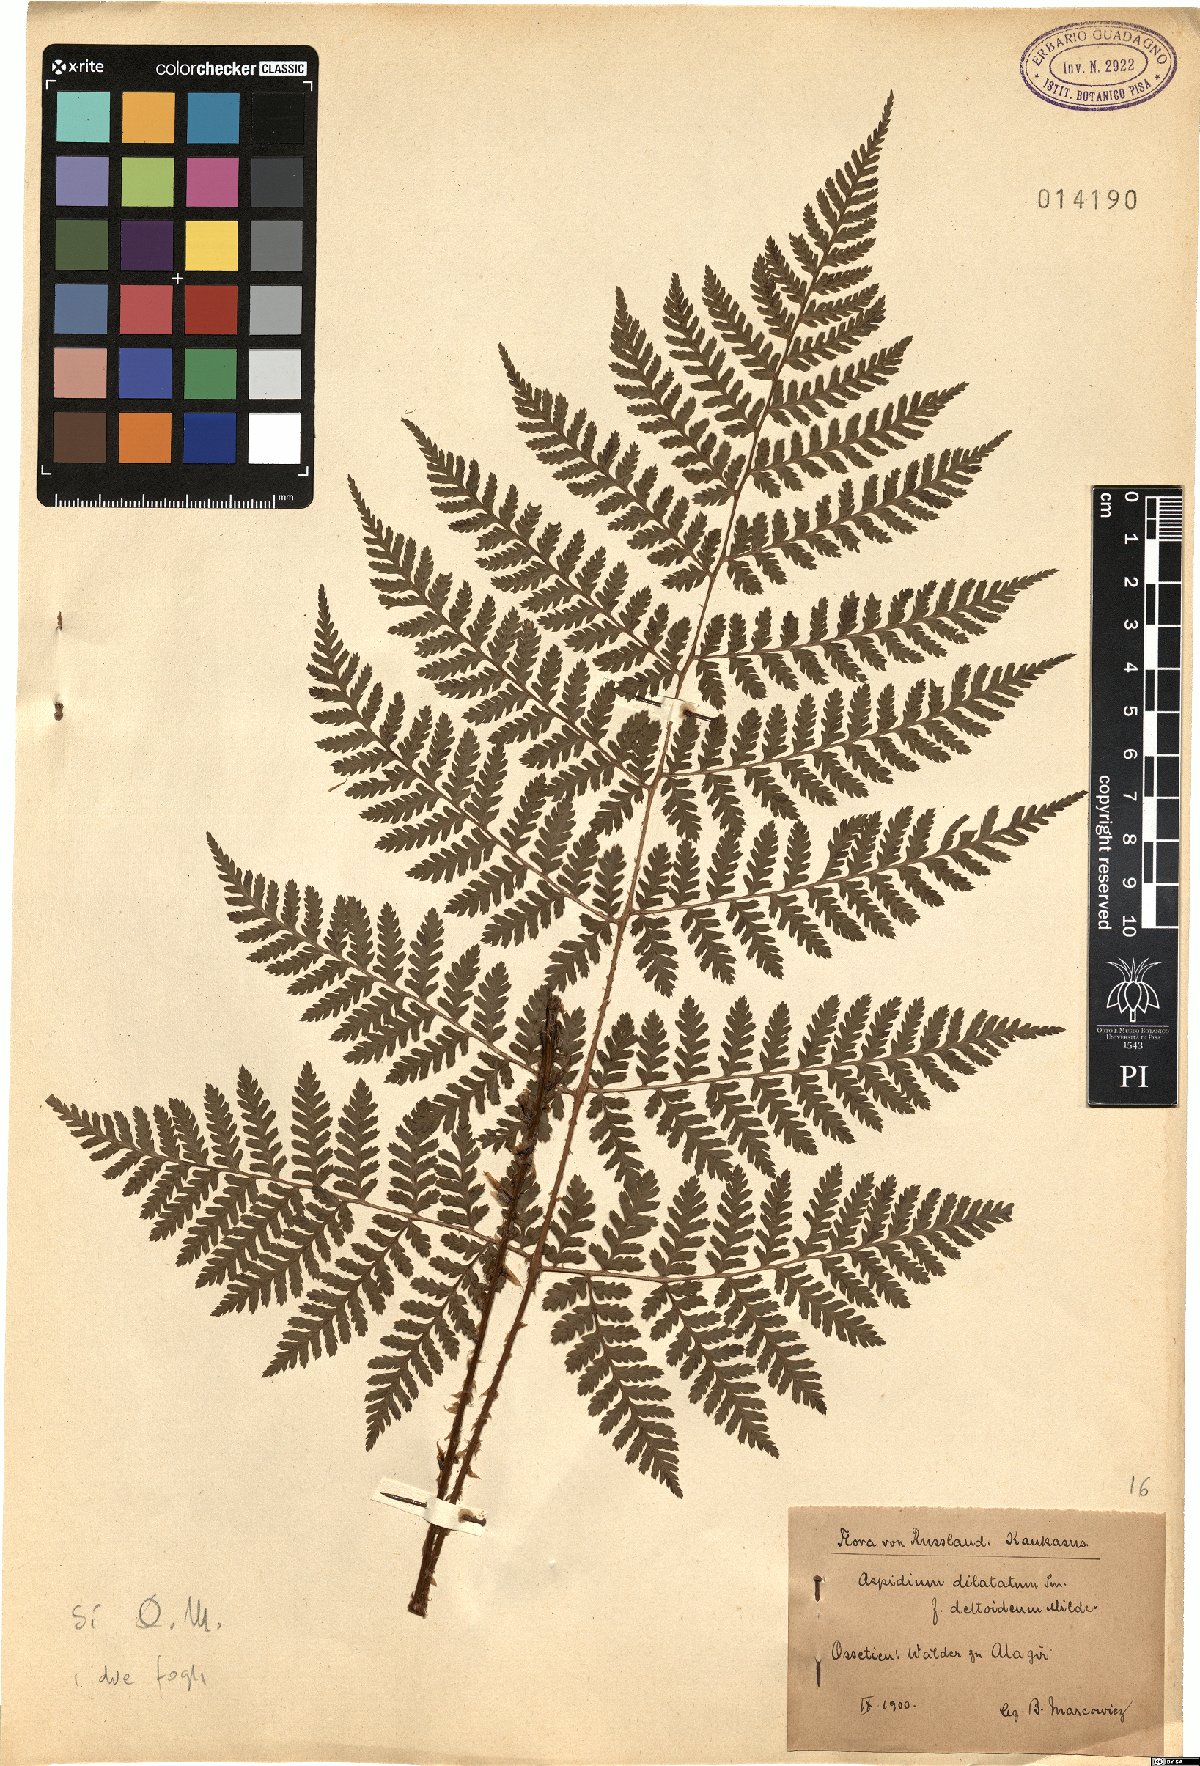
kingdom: Plantae
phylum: Tracheophyta
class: Polypodiopsida
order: Polypodiales
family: Dryopteridaceae
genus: Dryopteris
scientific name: Dryopteris dilatata
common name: Broad buckler-fern
